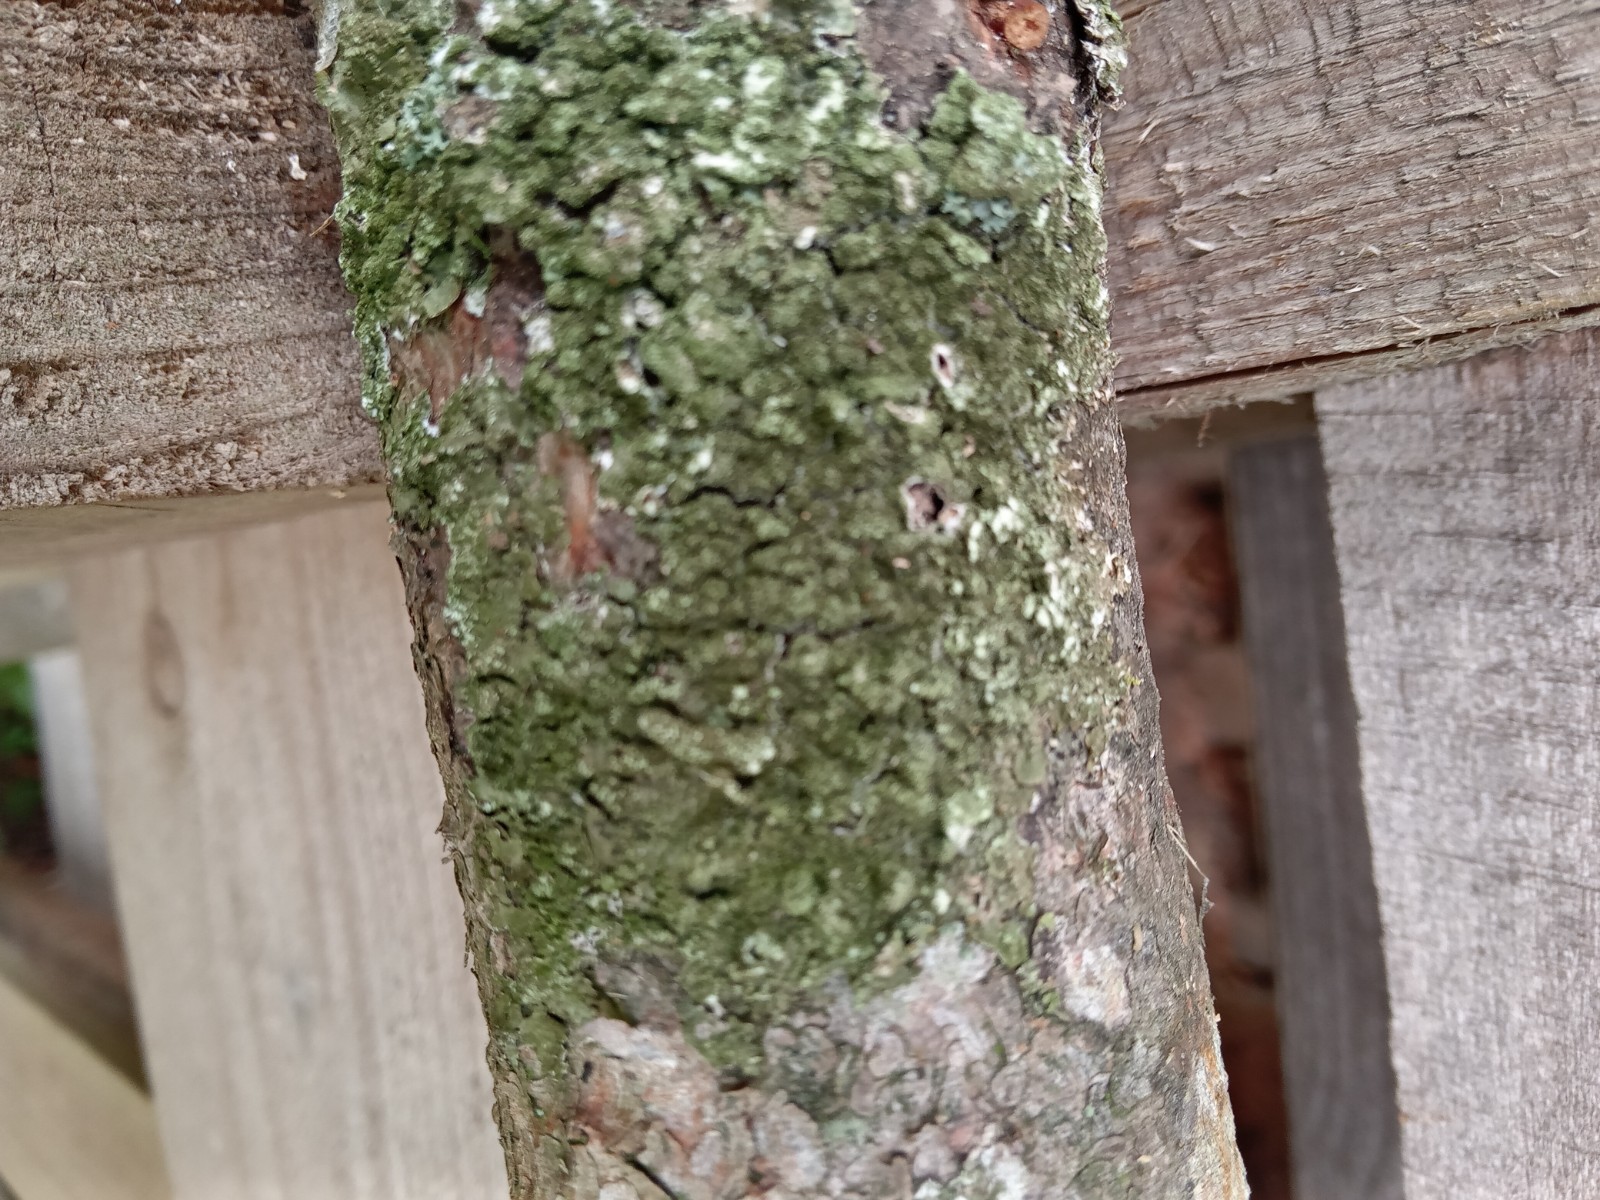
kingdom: Fungi
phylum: Ascomycota
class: Lecanoromycetes
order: Lecanorales
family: Parmeliaceae
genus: Lichen
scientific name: Lichen
